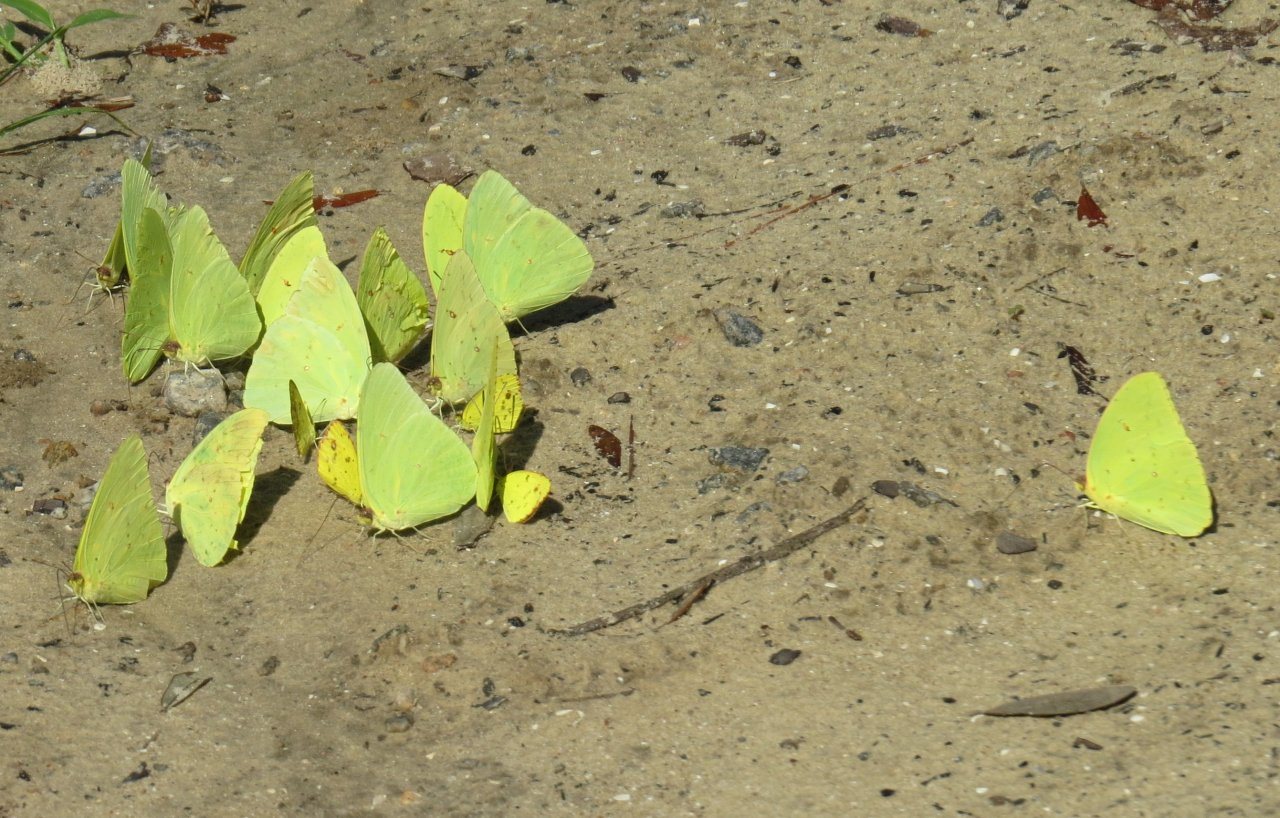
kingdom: Animalia
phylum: Arthropoda
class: Insecta
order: Lepidoptera
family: Pieridae
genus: Phoebis
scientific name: Phoebis sennae
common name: Cloudless Sulphur
